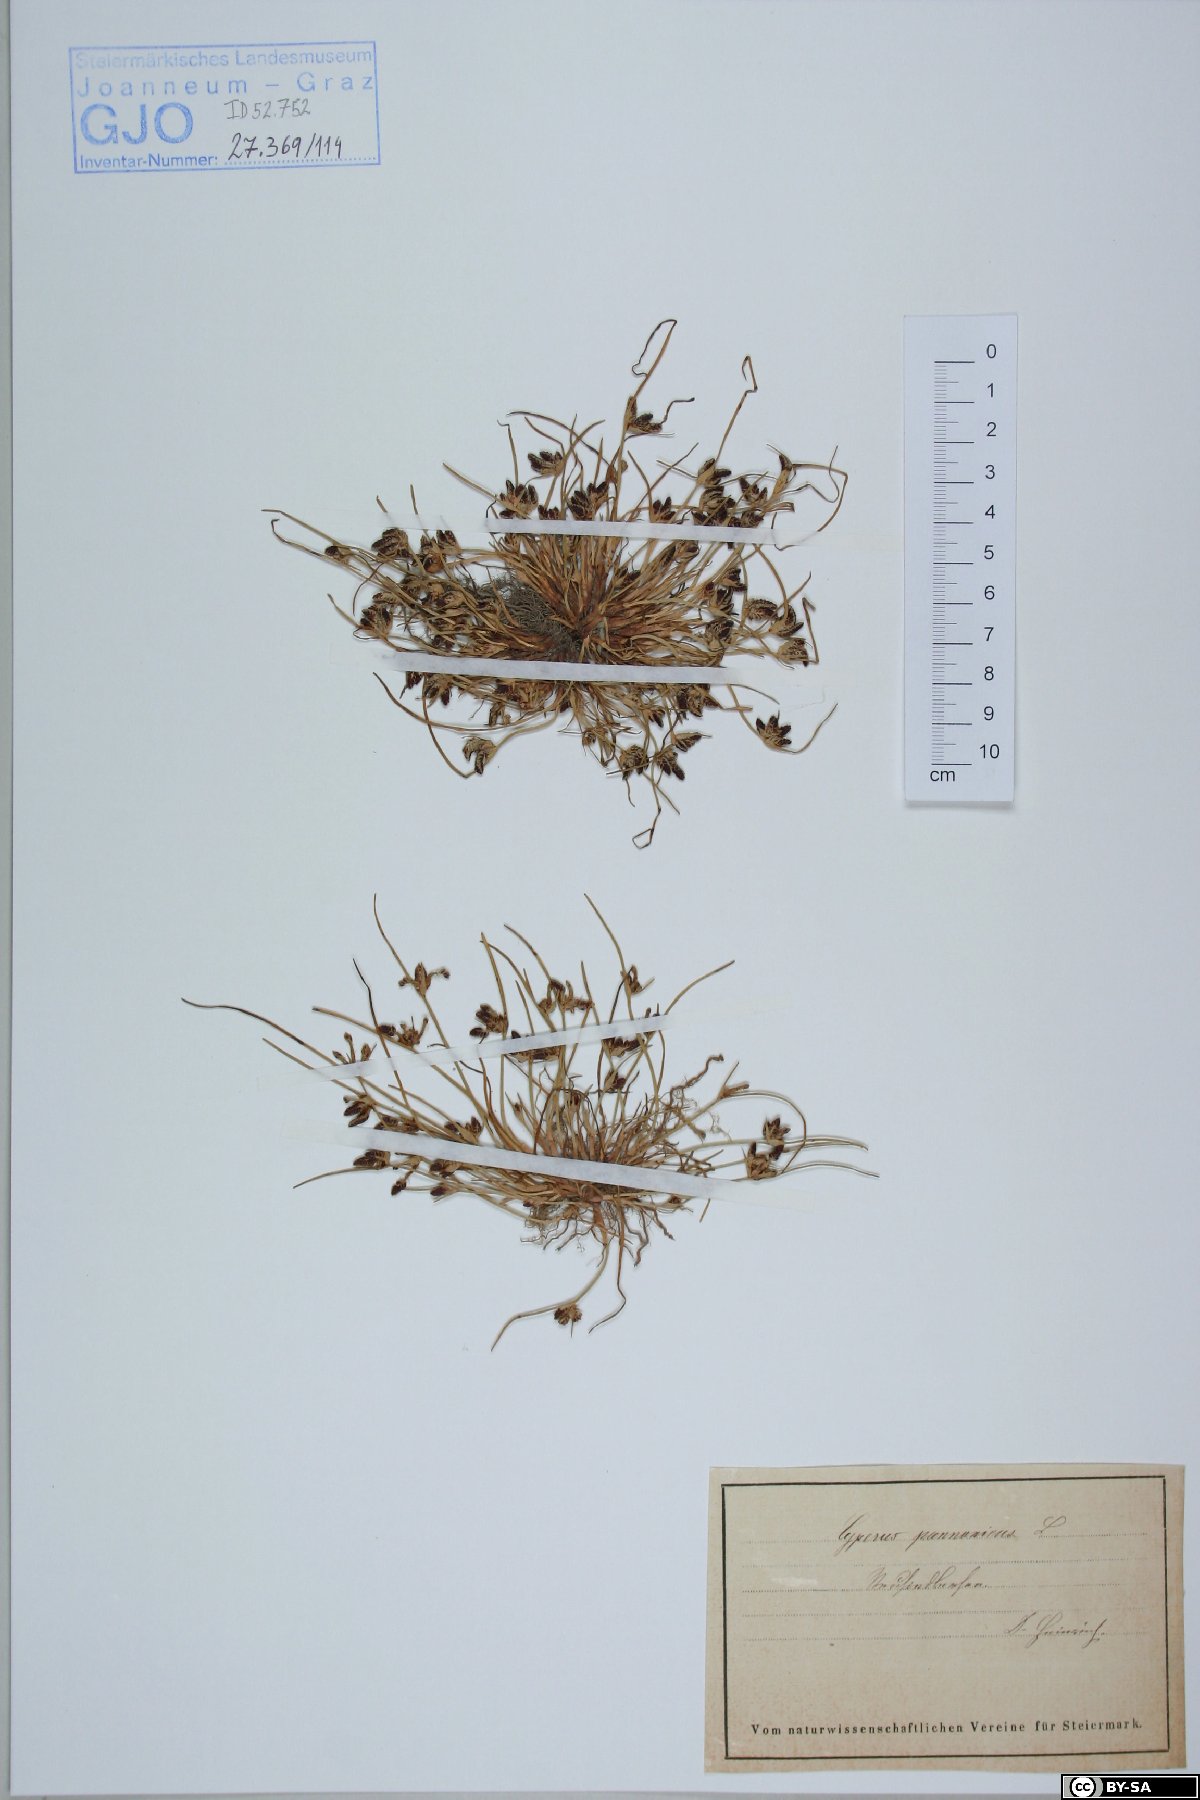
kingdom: Plantae
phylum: Tracheophyta
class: Liliopsida
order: Poales
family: Cyperaceae
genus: Cyperus
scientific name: Cyperus pannonicus
